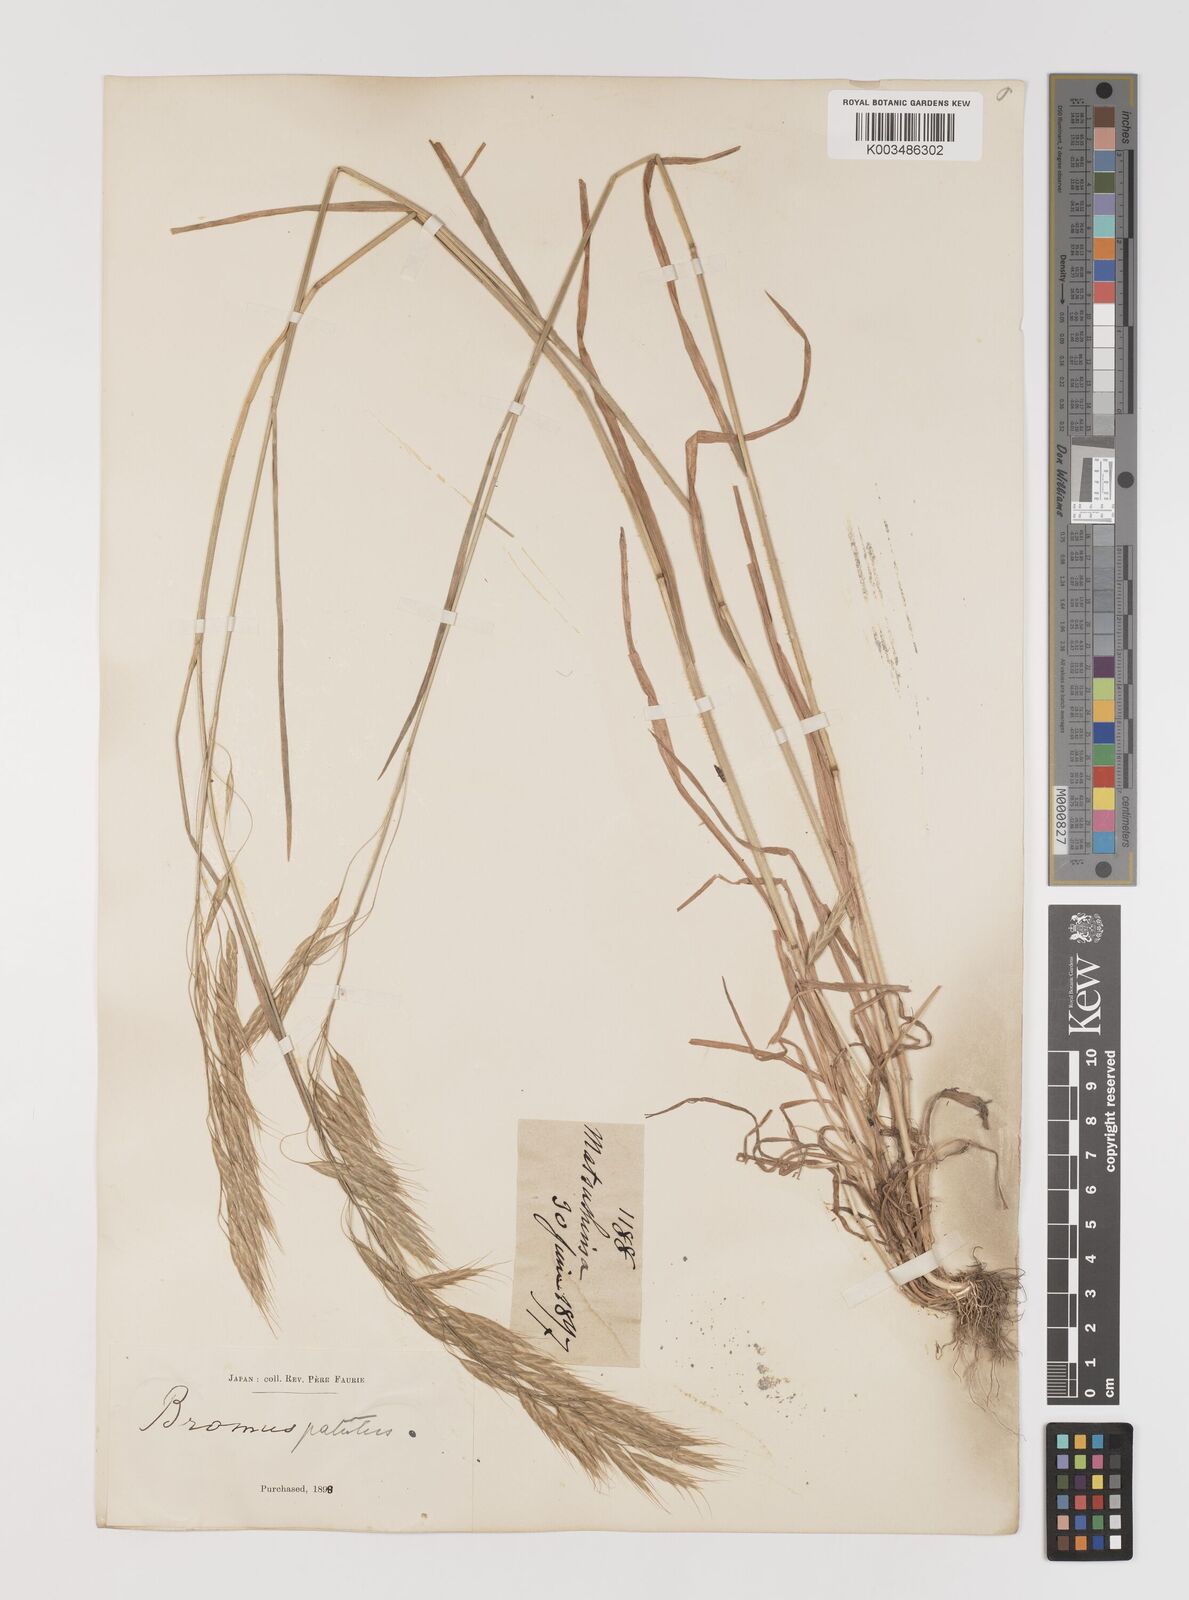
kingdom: Plantae
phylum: Tracheophyta
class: Liliopsida
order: Poales
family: Poaceae
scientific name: Poaceae
